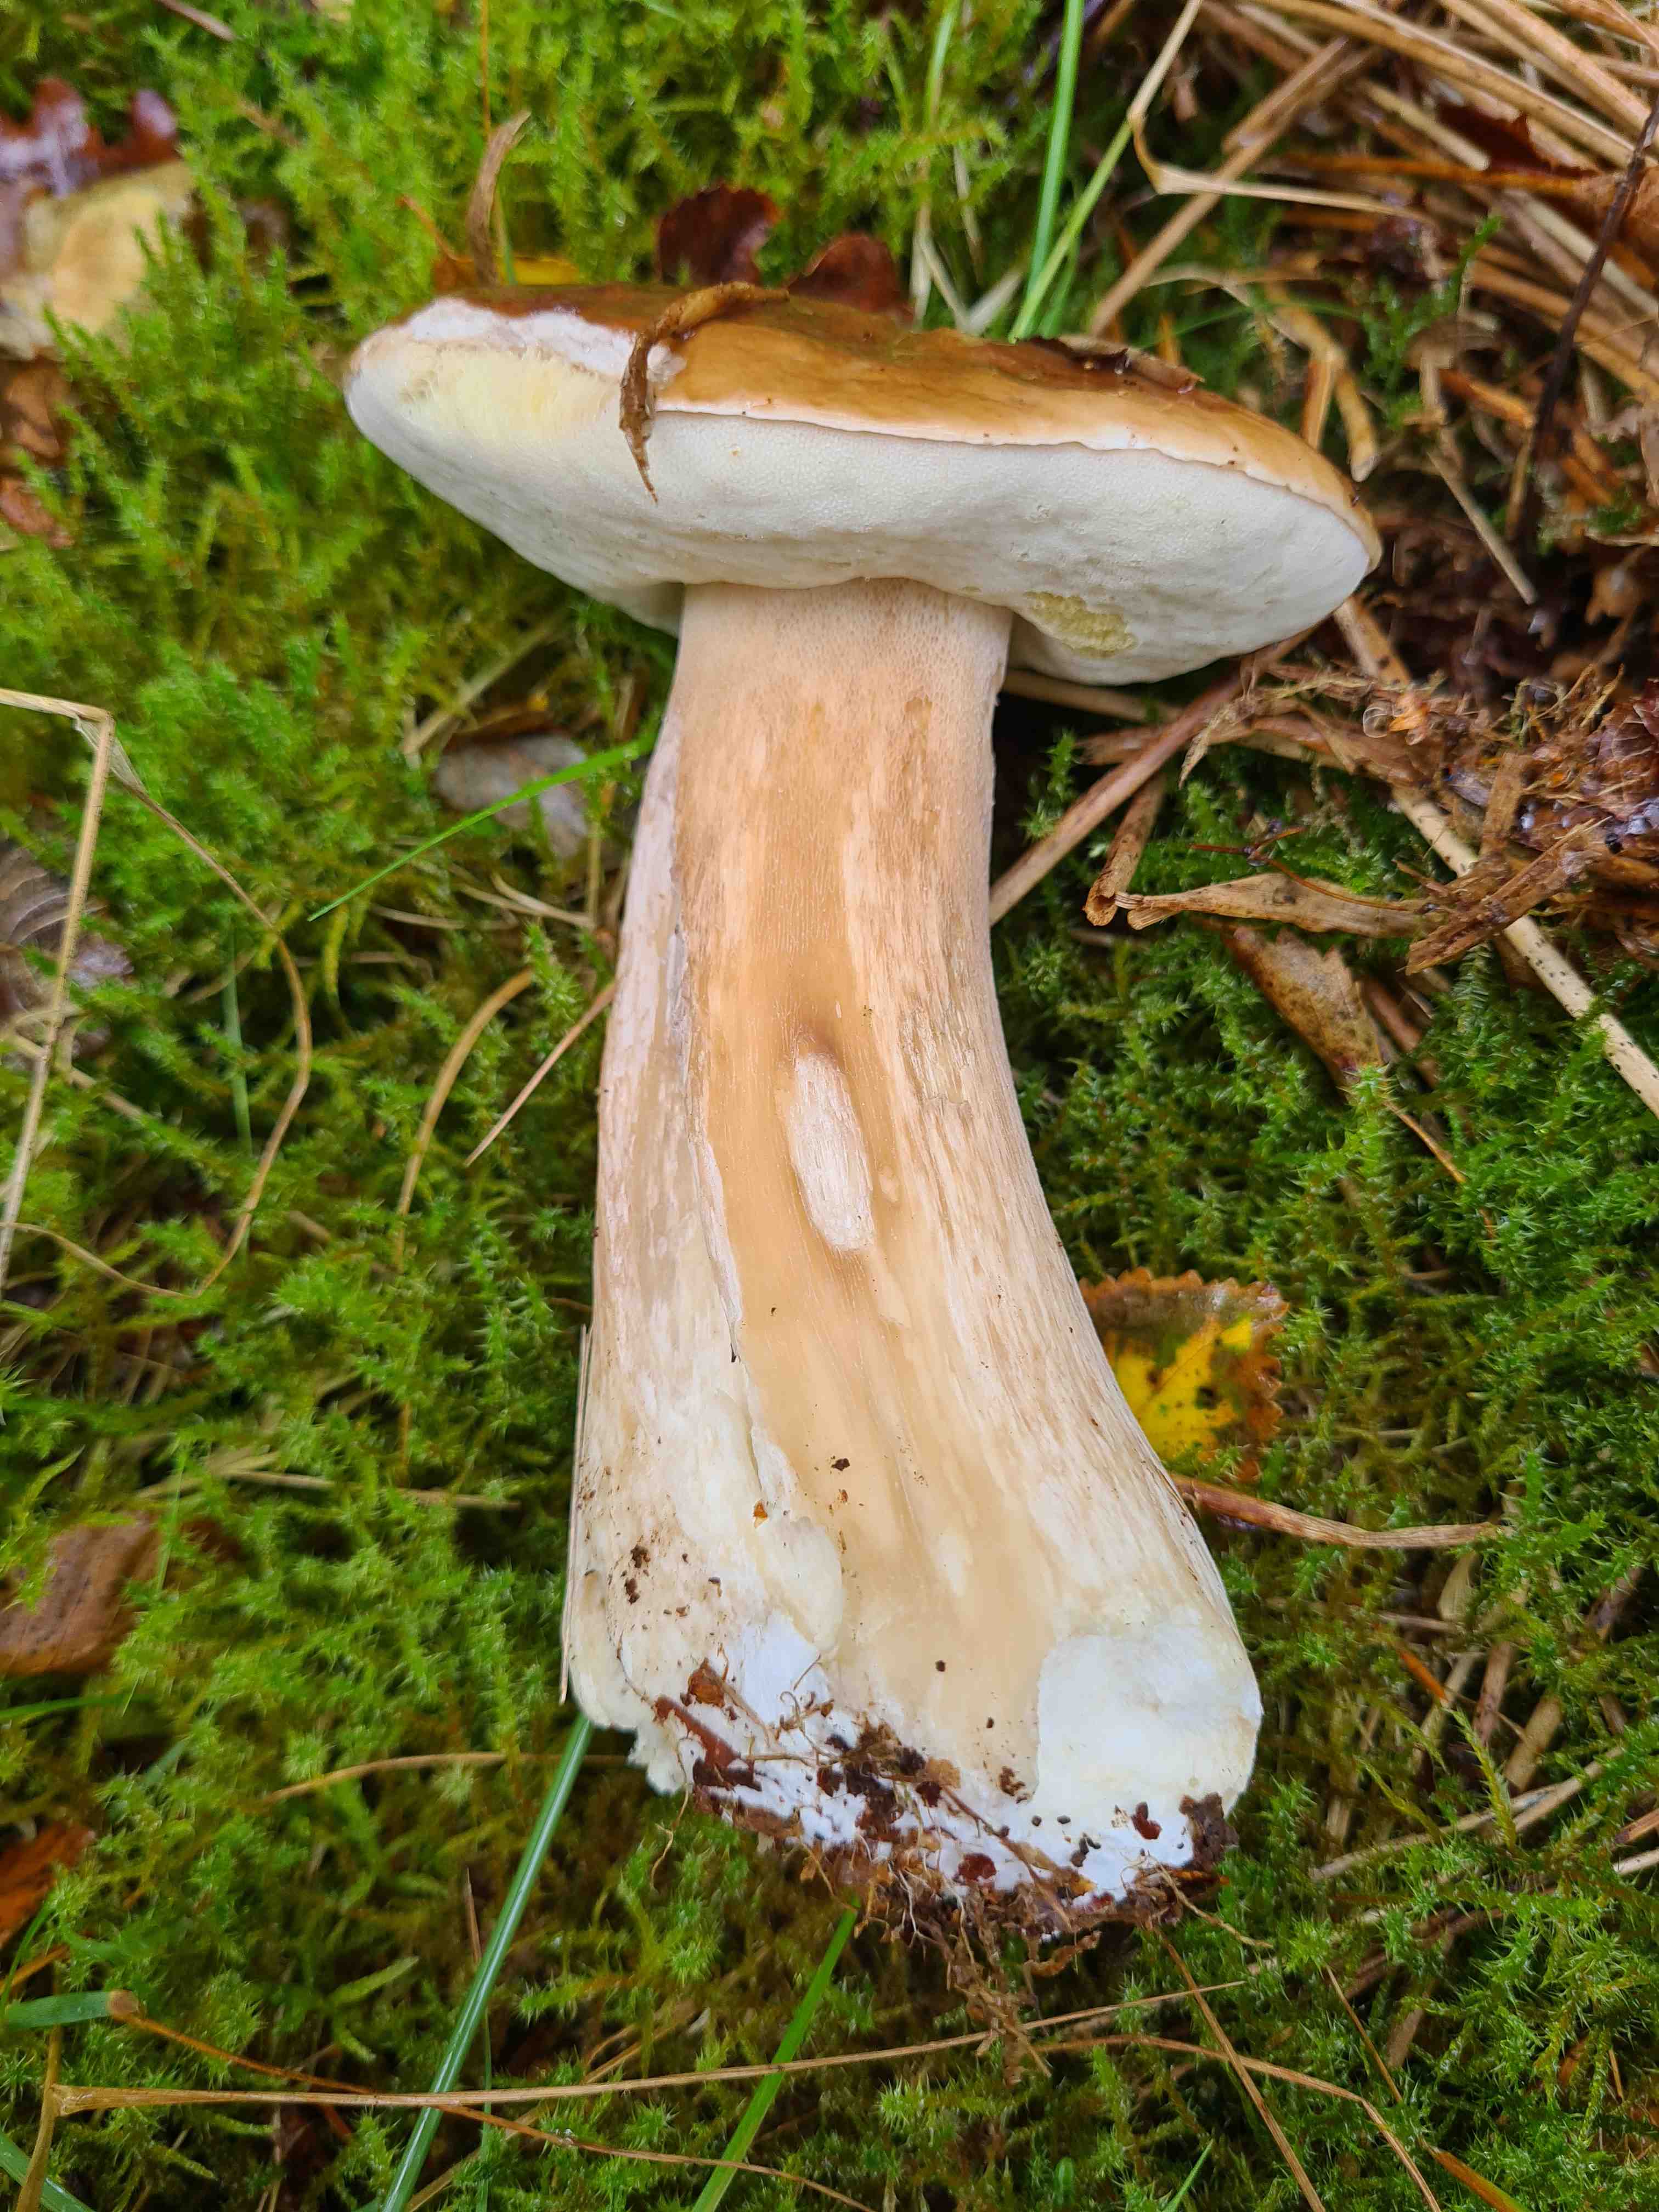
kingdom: Fungi
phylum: Basidiomycota
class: Agaricomycetes
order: Boletales
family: Boletaceae
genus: Boletus
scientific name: Boletus edulis
